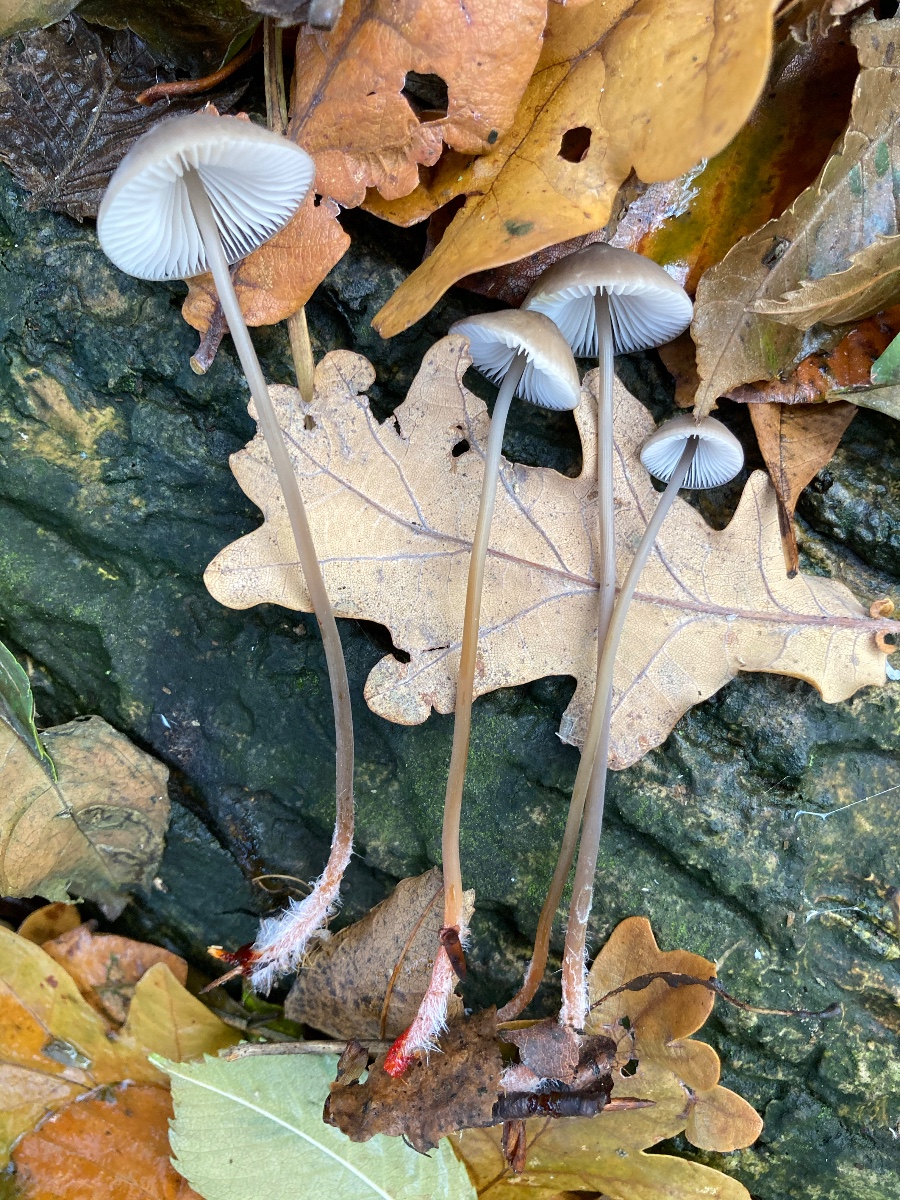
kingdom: Fungi
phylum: Basidiomycota
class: Agaricomycetes
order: Agaricales
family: Mycenaceae
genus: Mycena
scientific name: Mycena crocata
